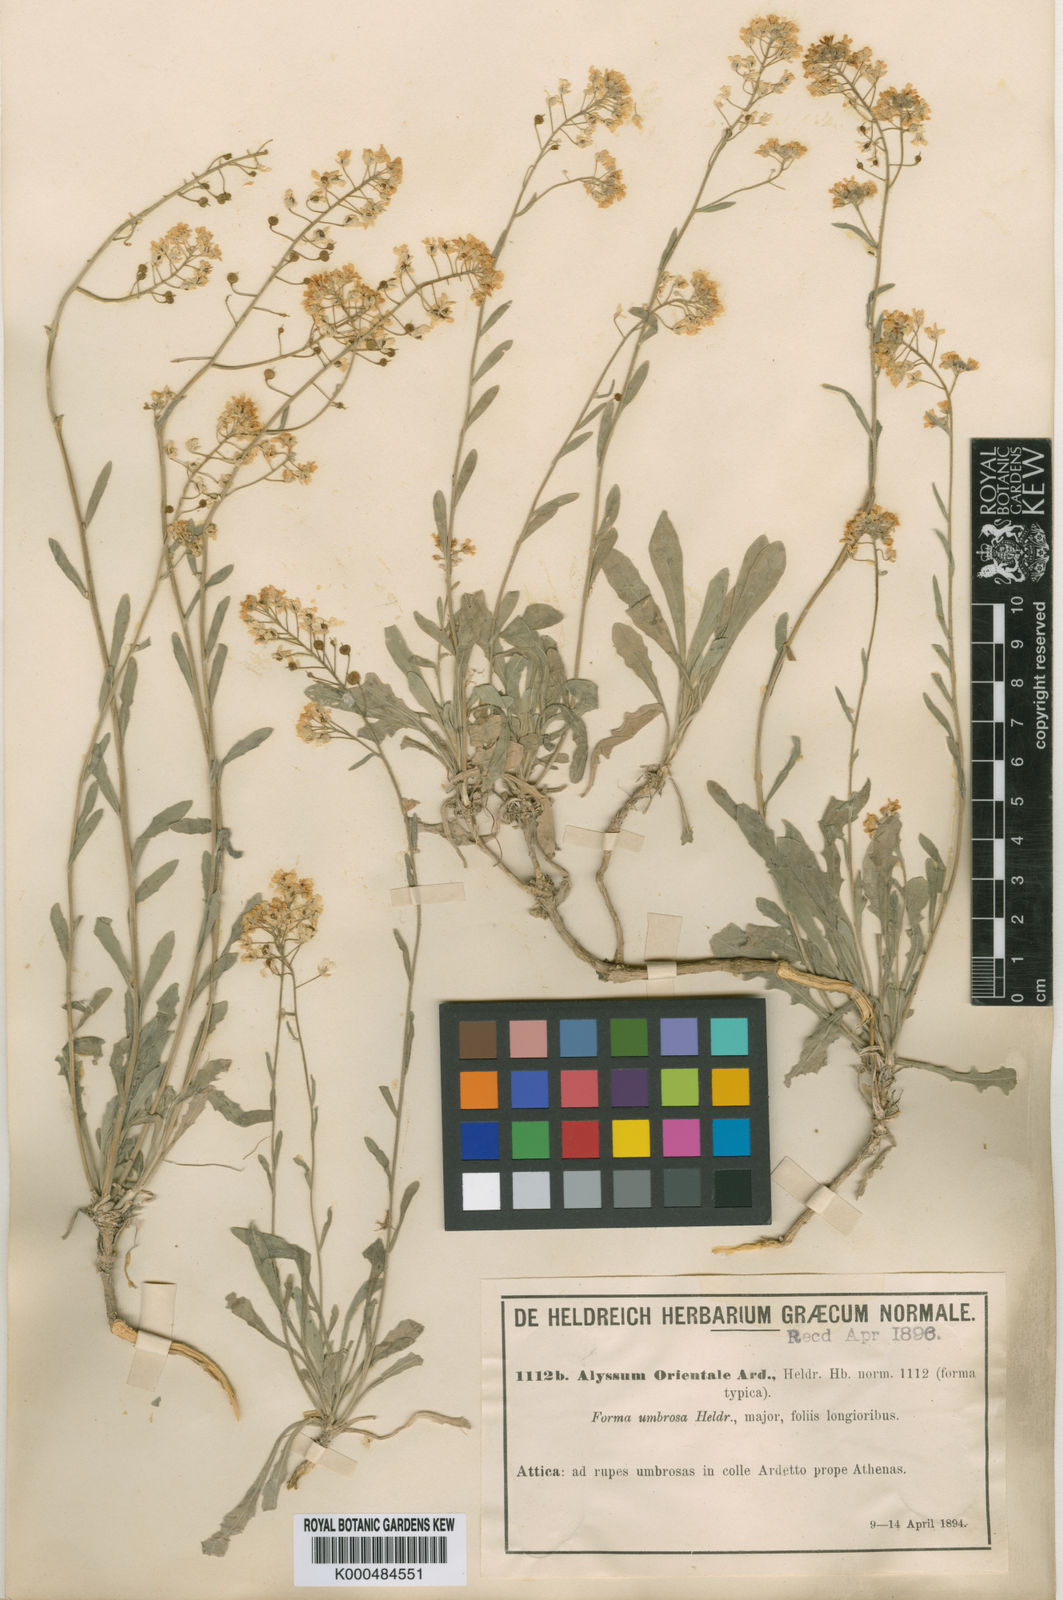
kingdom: Plantae
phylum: Tracheophyta
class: Magnoliopsida
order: Brassicales
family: Brassicaceae
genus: Aurinia
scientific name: Aurinia saxatilis
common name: Golden-tuft alyssum
